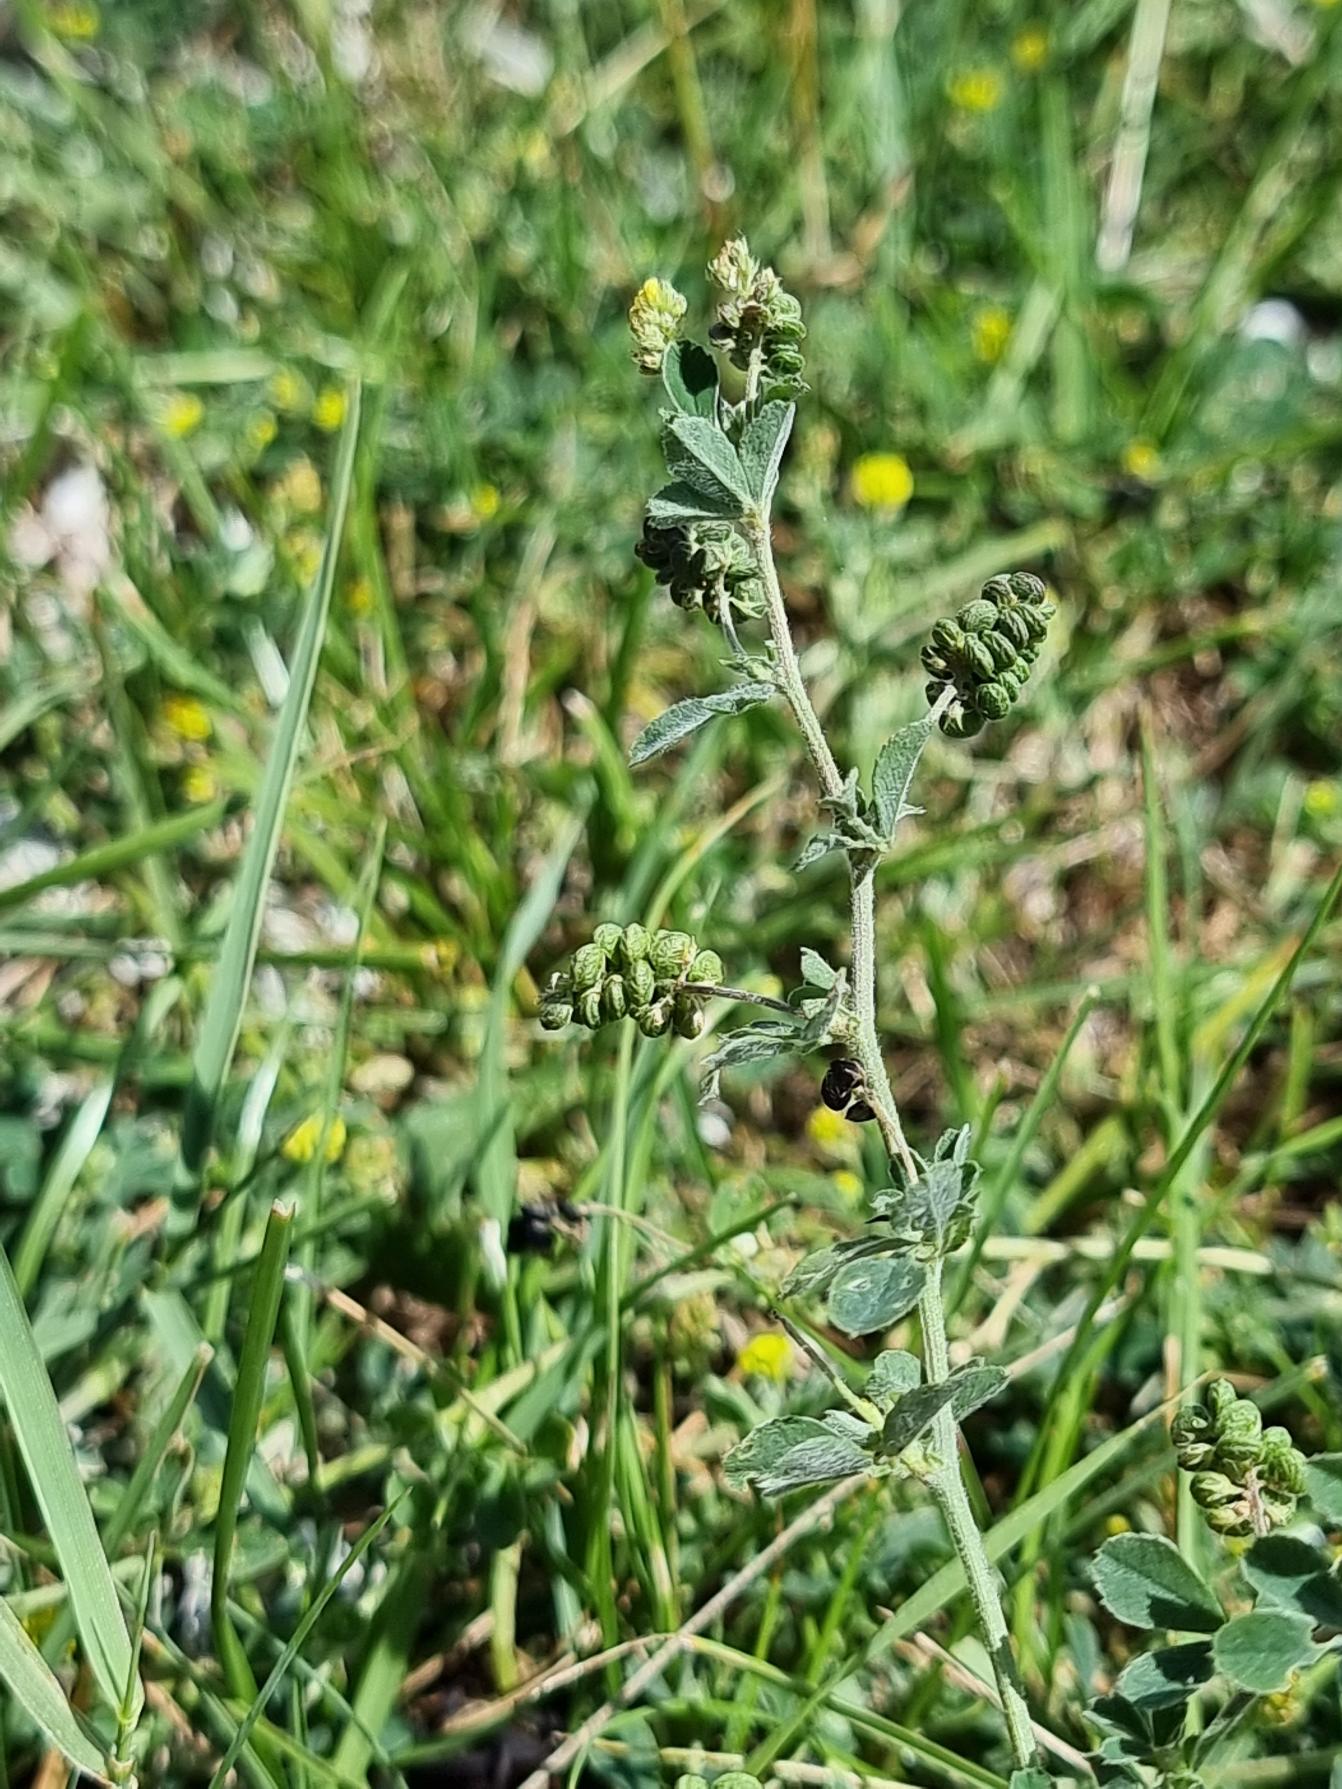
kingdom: Plantae
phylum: Tracheophyta
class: Magnoliopsida
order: Fabales
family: Fabaceae
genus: Medicago
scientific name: Medicago lupulina
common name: Humle-sneglebælg
